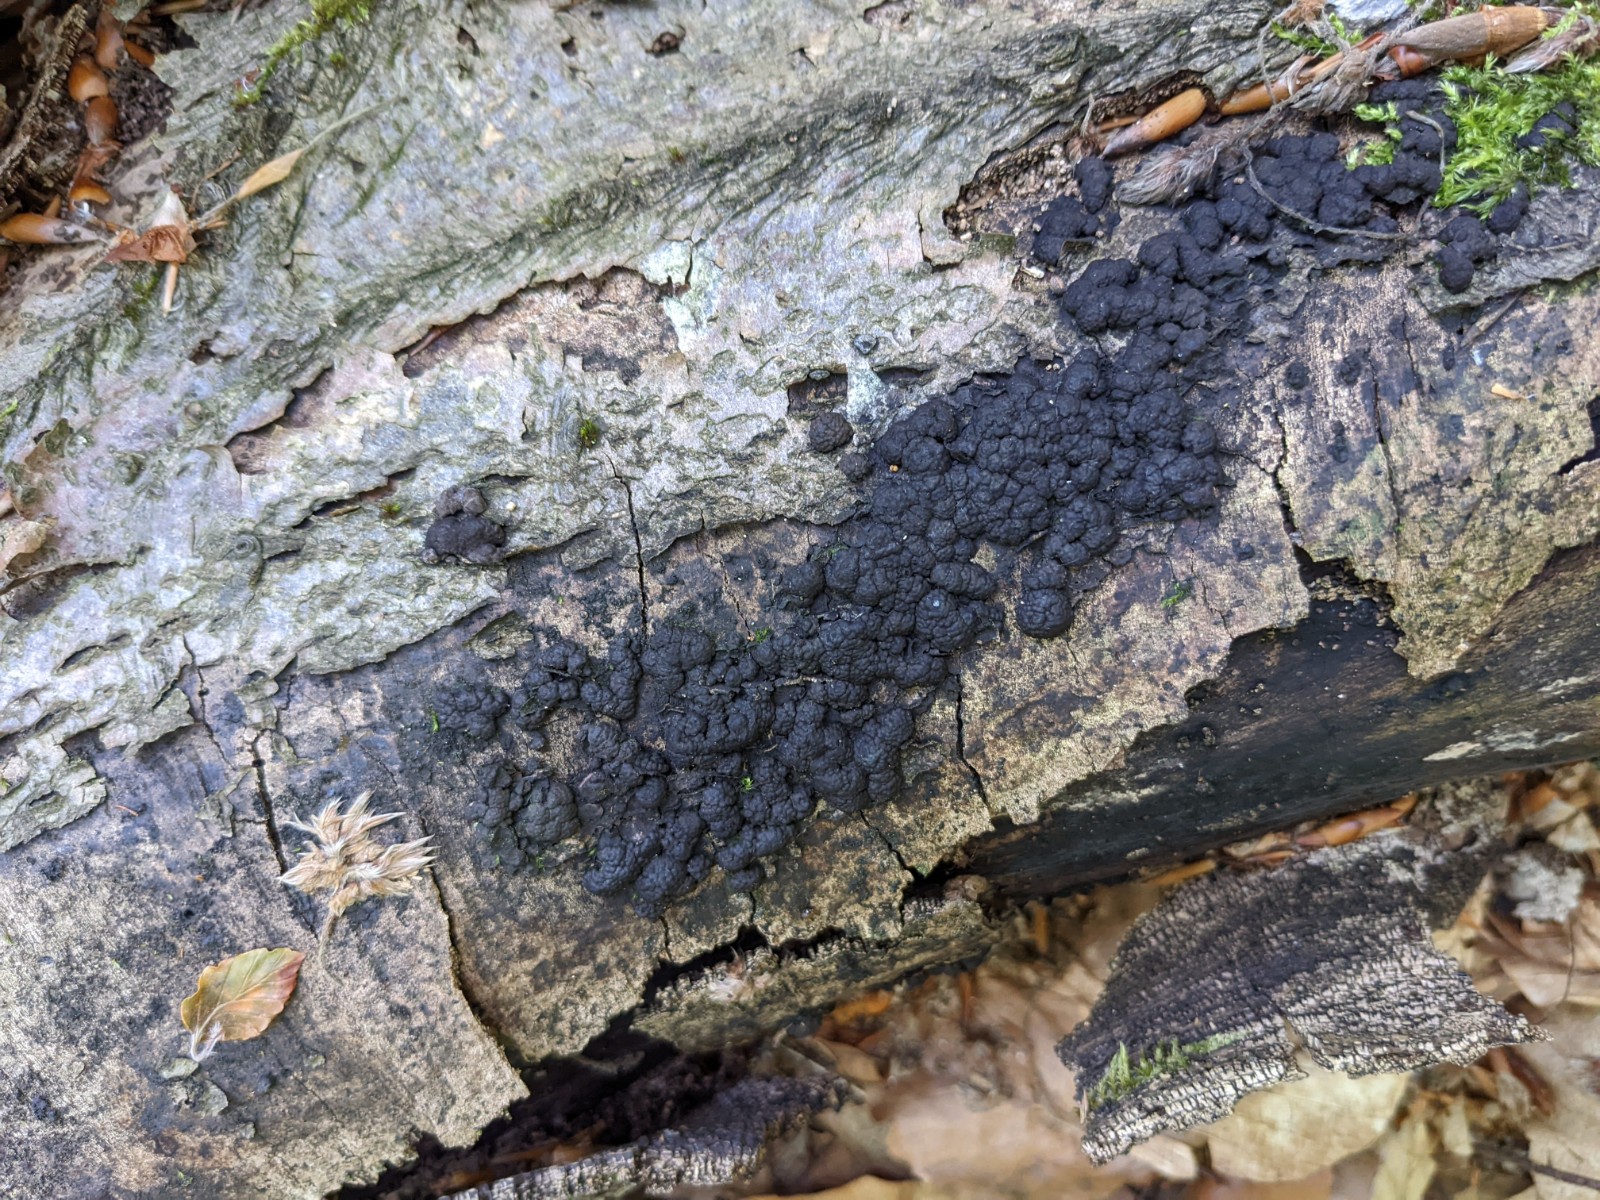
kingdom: Fungi
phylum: Ascomycota
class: Sordariomycetes
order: Xylariales
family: Hypoxylaceae
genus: Jackrogersella
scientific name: Jackrogersella cohaerens
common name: sammenflydende kulbær
